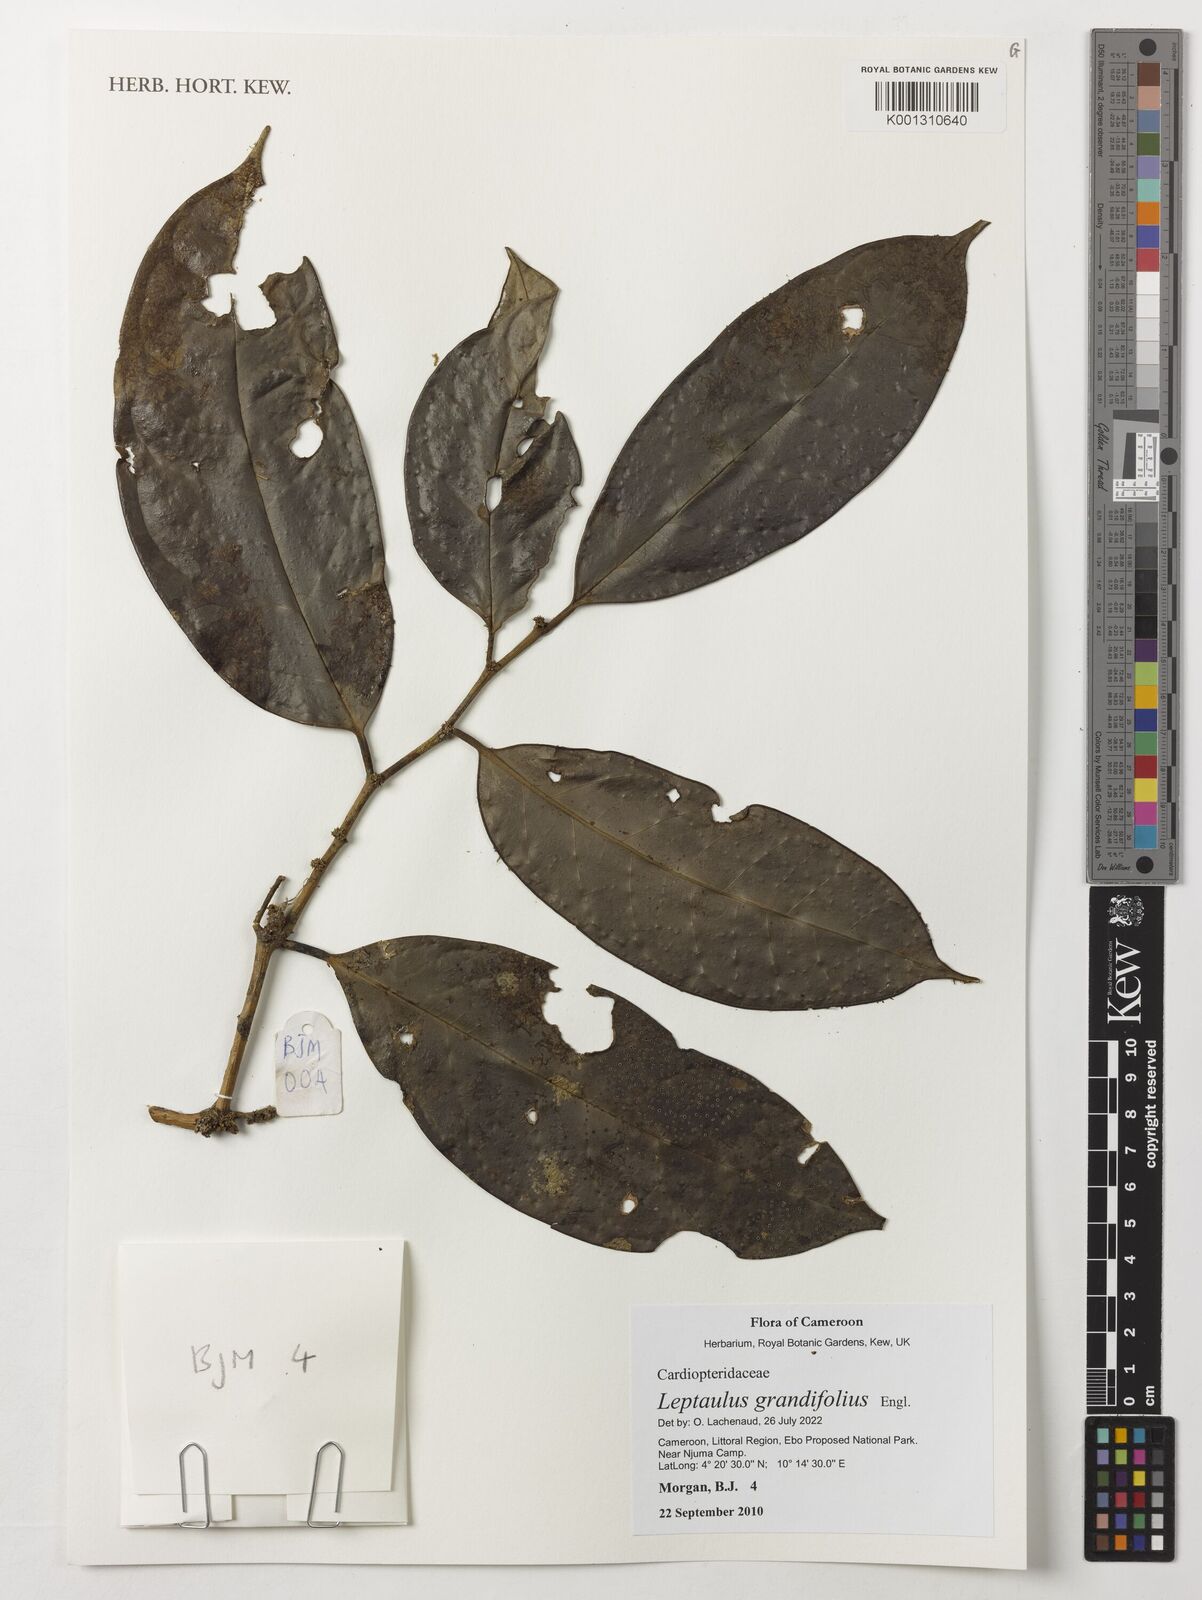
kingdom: Plantae
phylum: Tracheophyta
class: Magnoliopsida
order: Cardiopteridales
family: Cardiopteridaceae
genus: Leptaulus
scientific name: Leptaulus grandifolius
